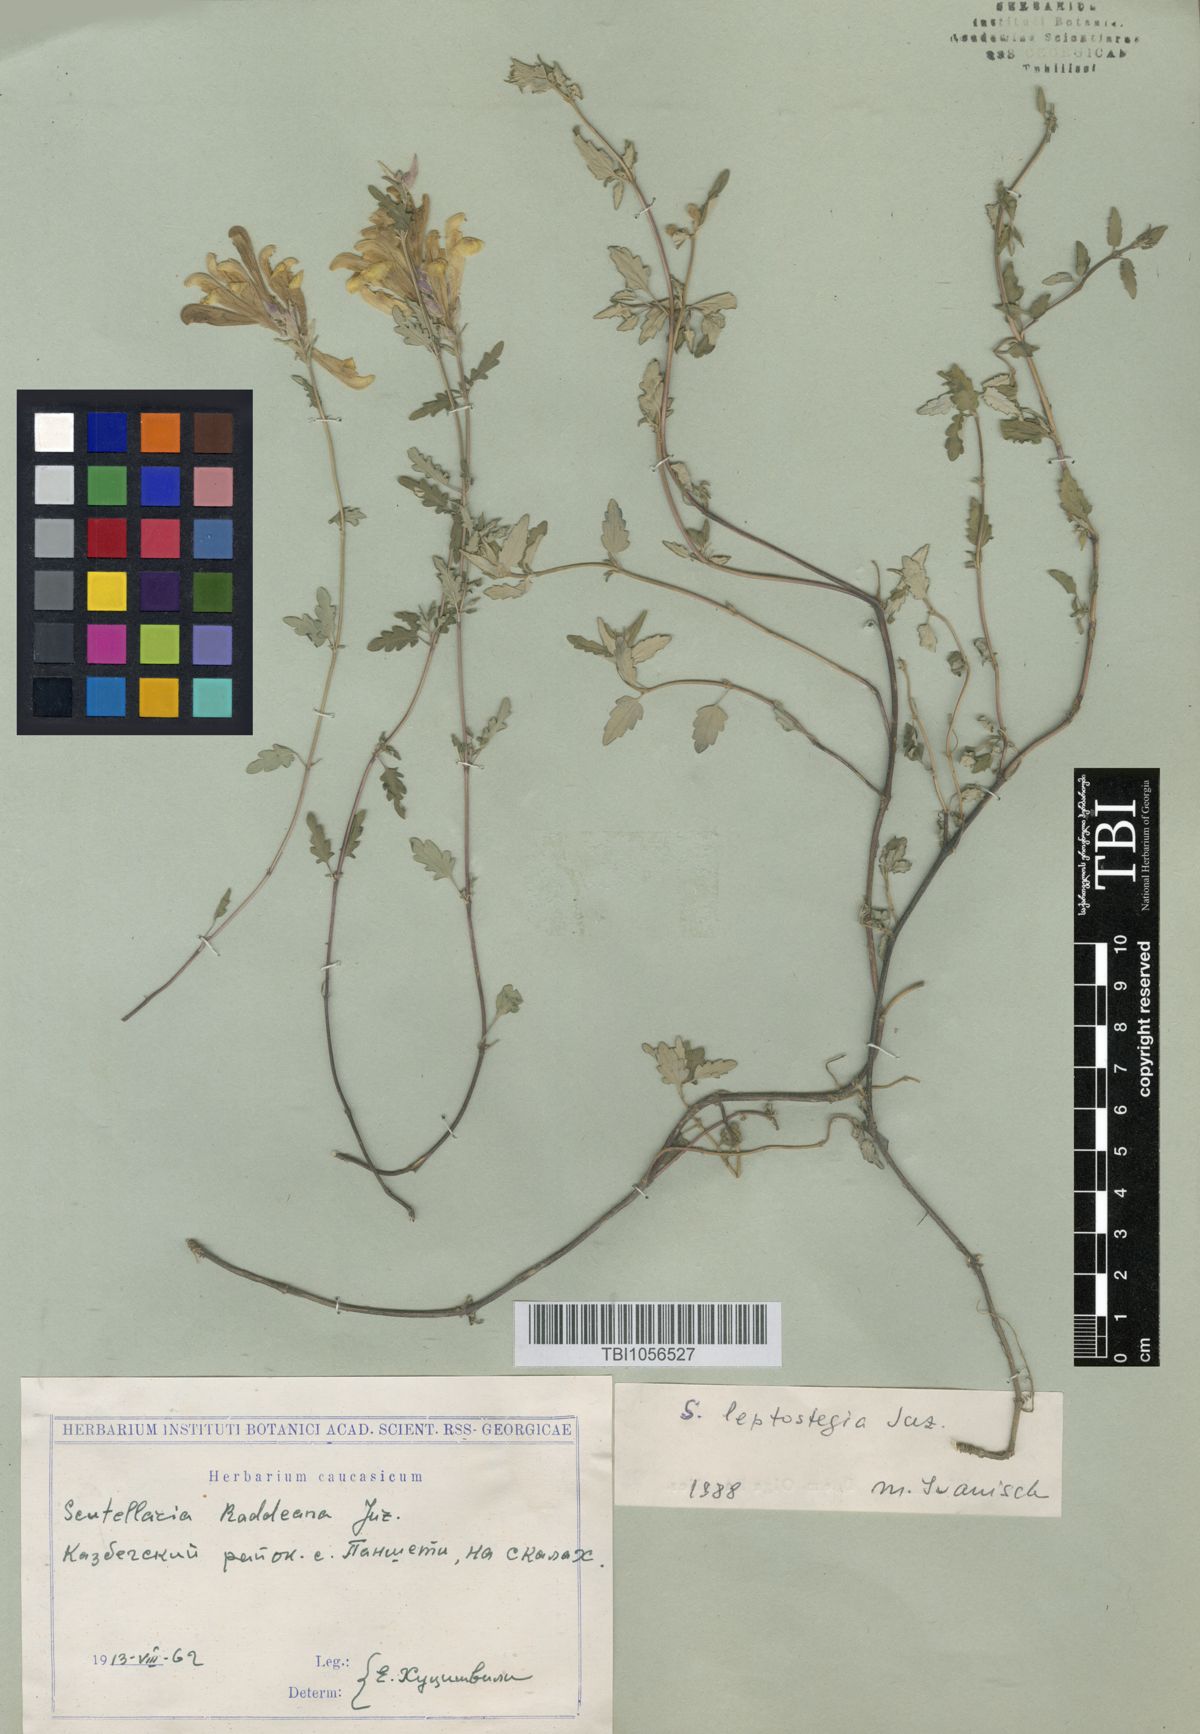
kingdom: Plantae
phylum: Tracheophyta
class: Magnoliopsida
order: Lamiales
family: Lamiaceae
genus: Scutellaria
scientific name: Scutellaria leptostegia
